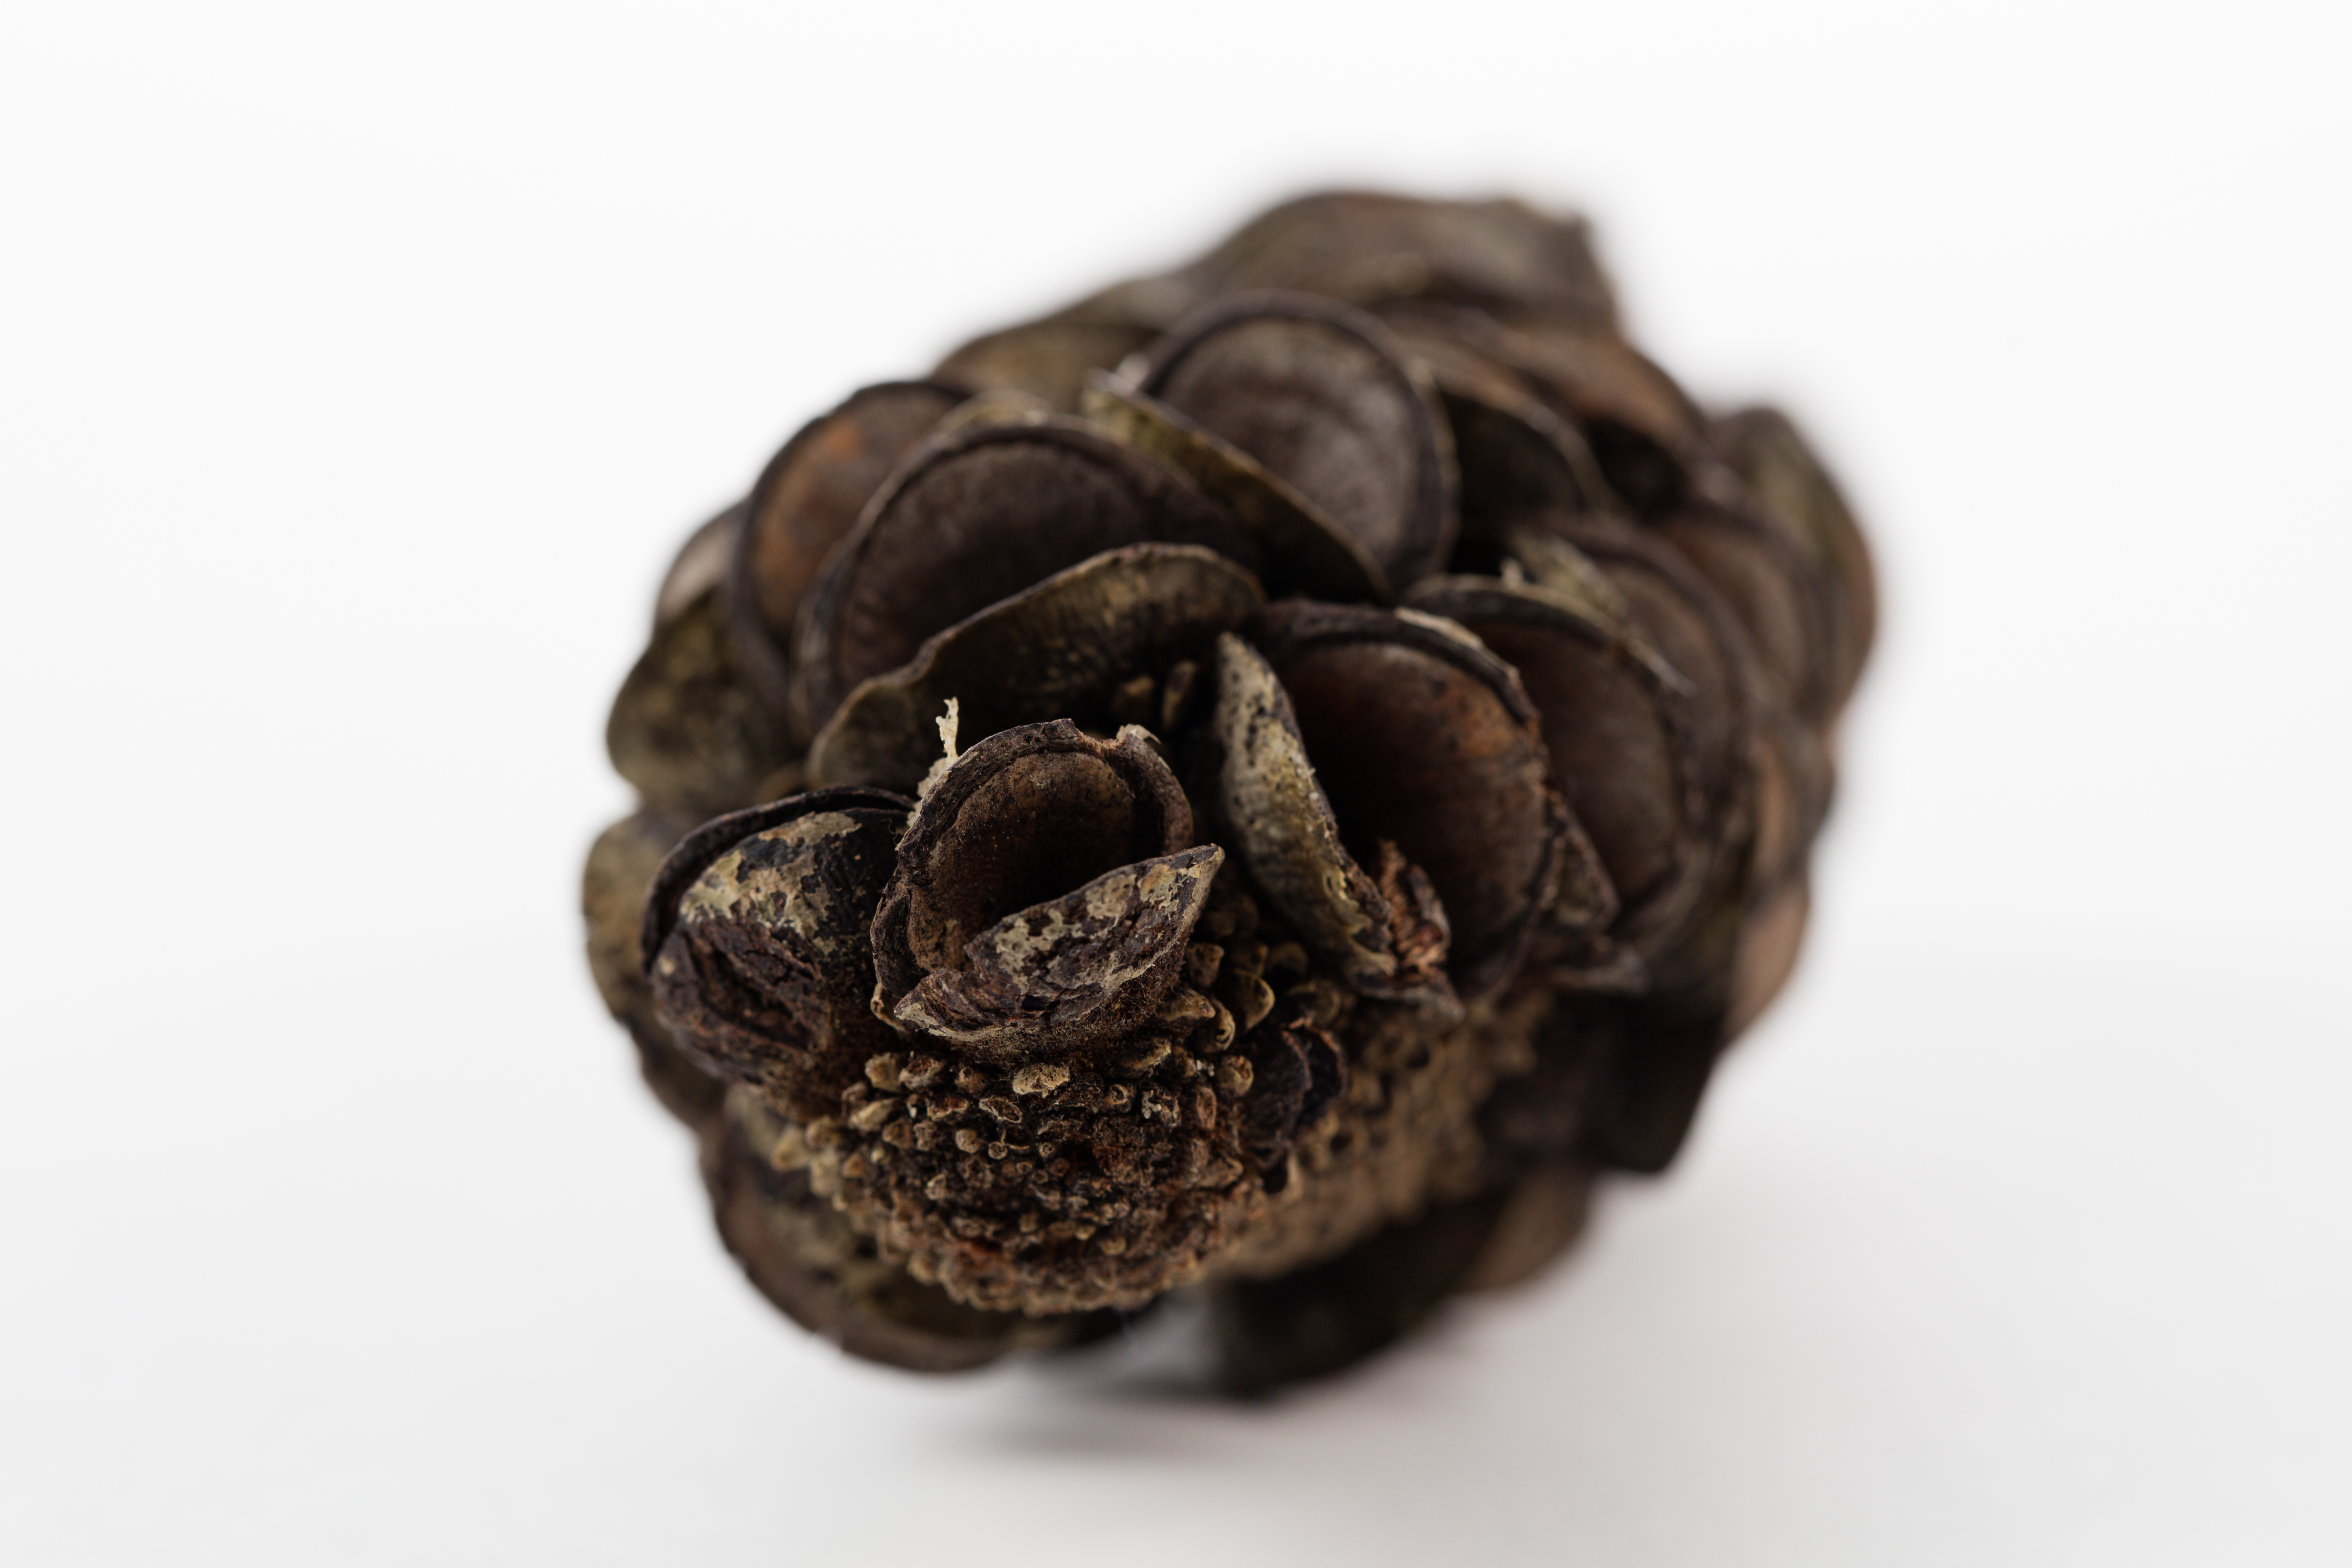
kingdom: Plantae
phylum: Tracheophyta
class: Magnoliopsida
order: Proteales
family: Proteaceae
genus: Banksia
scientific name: Banksia integrifolia
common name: White-honeysuckle
